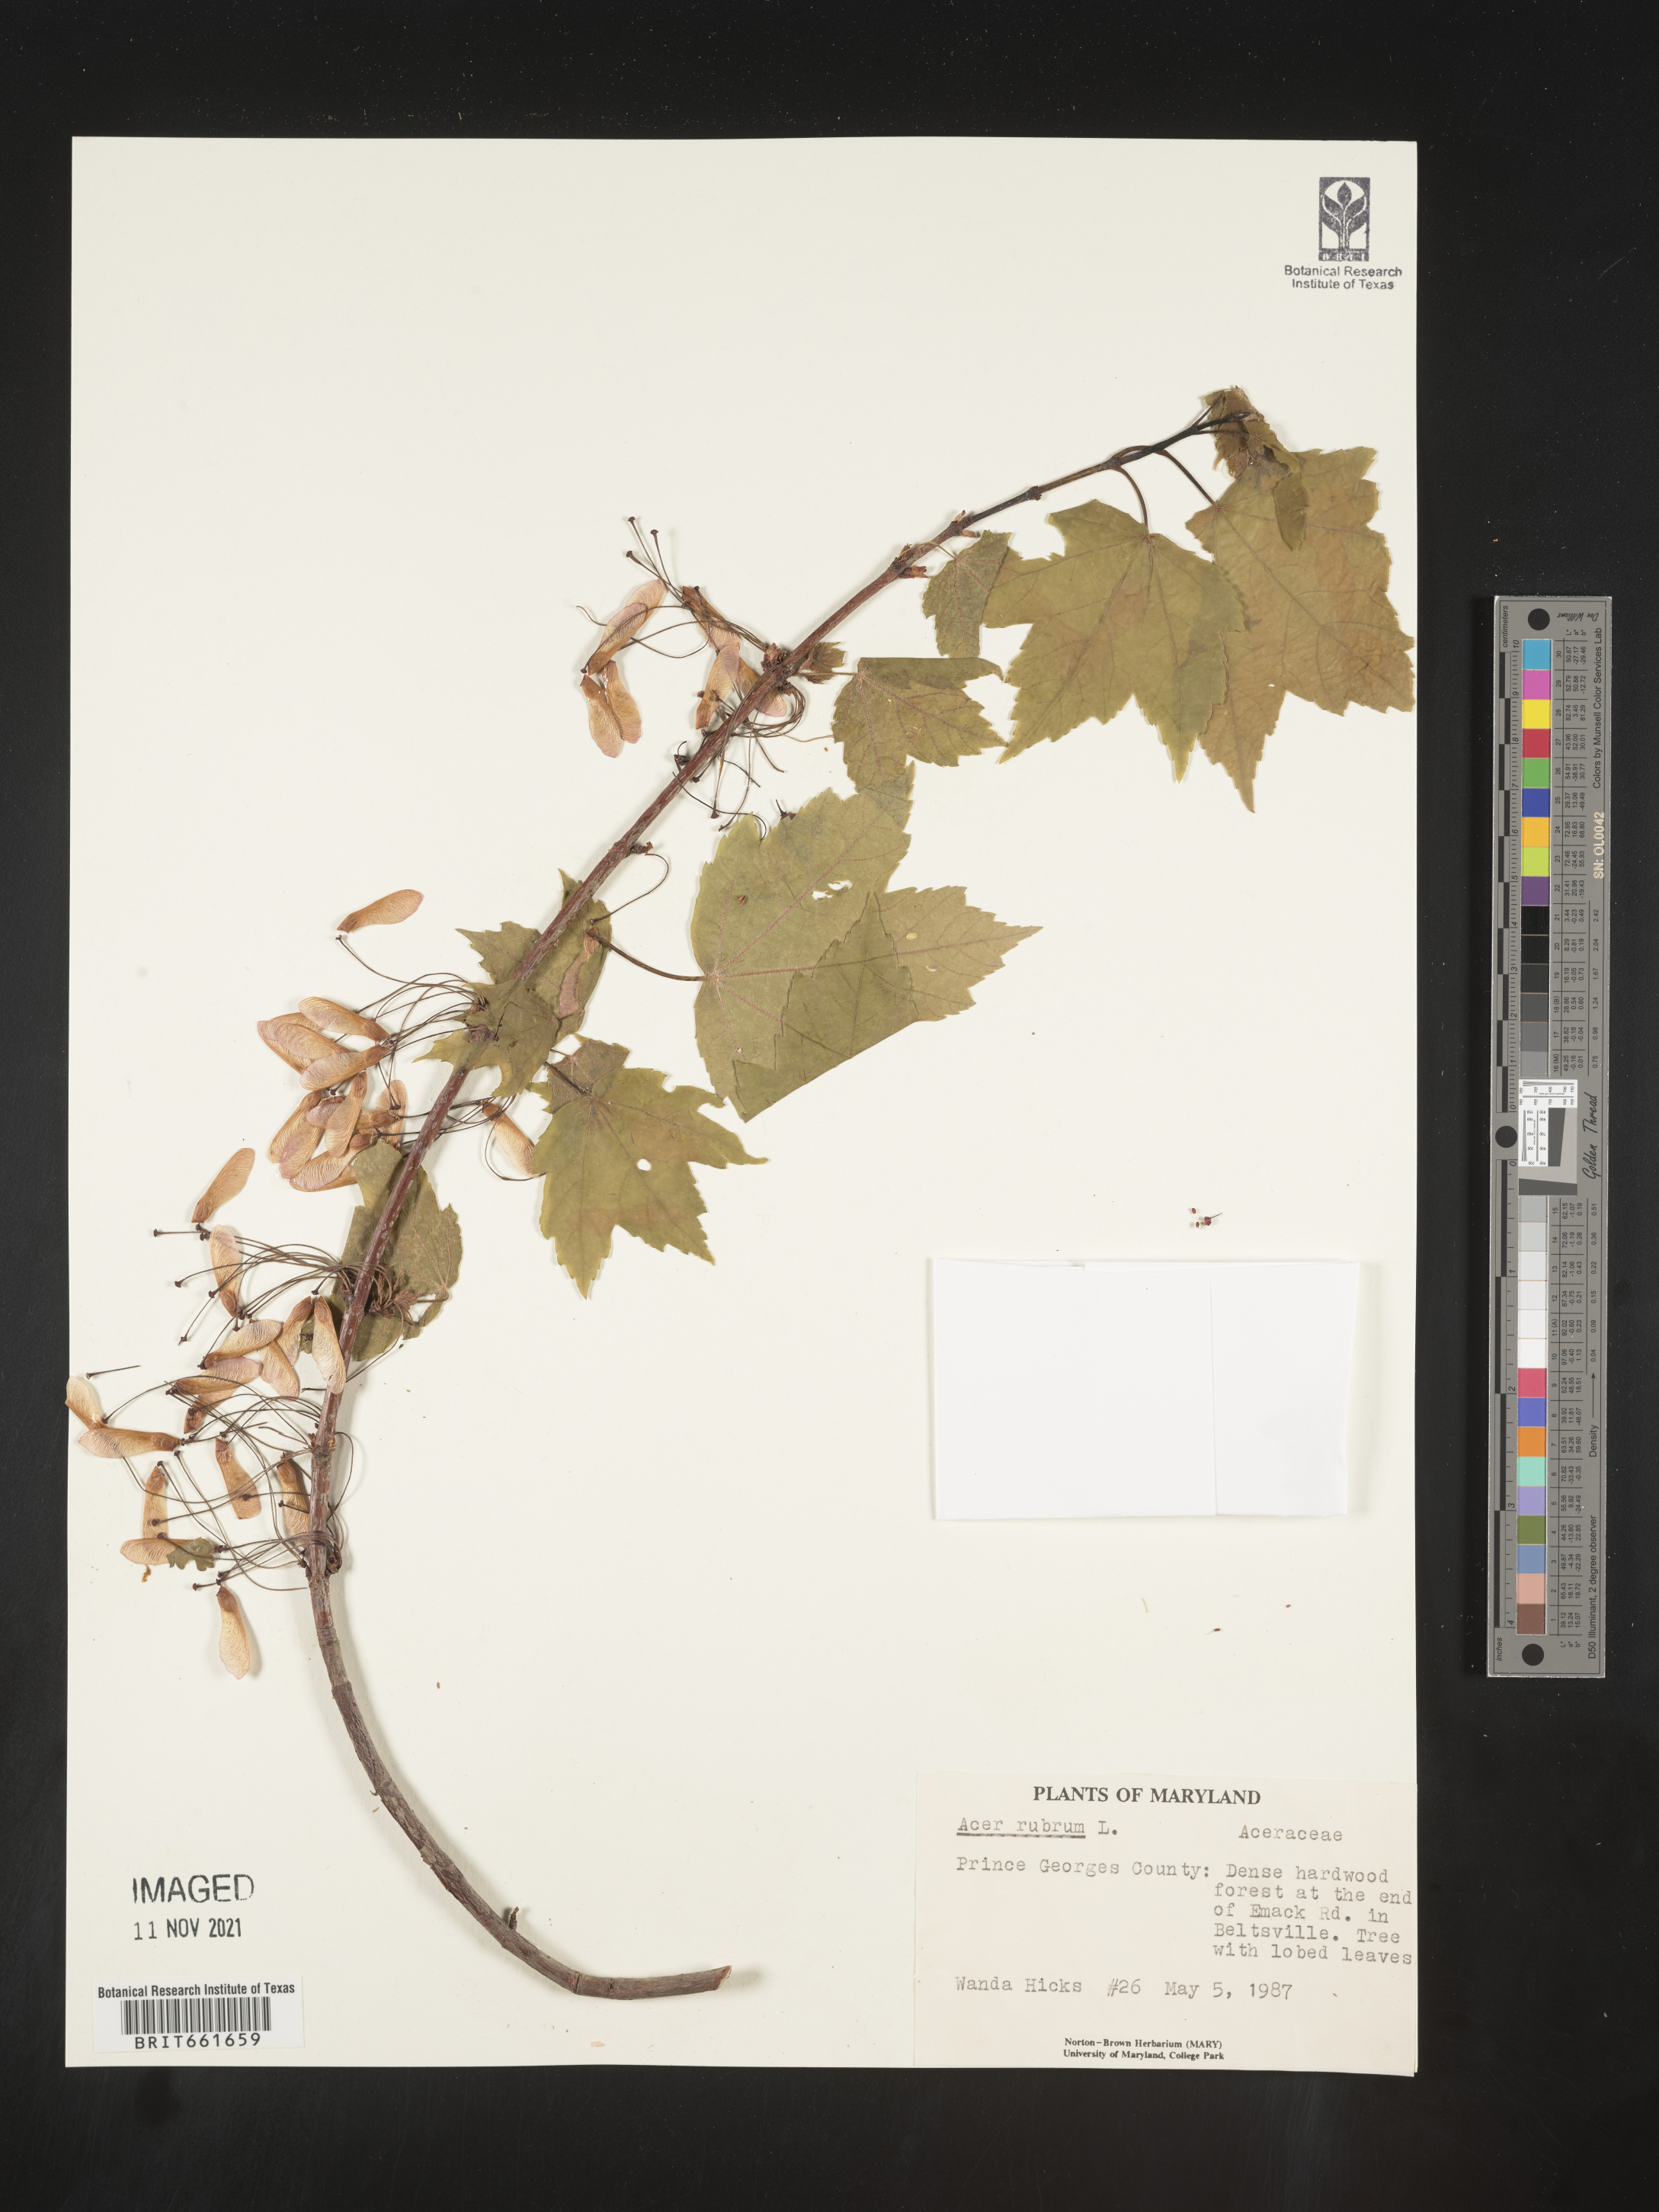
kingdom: Plantae
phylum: Tracheophyta
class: Magnoliopsida
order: Sapindales
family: Sapindaceae
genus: Acer
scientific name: Acer rubrum
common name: Red maple
